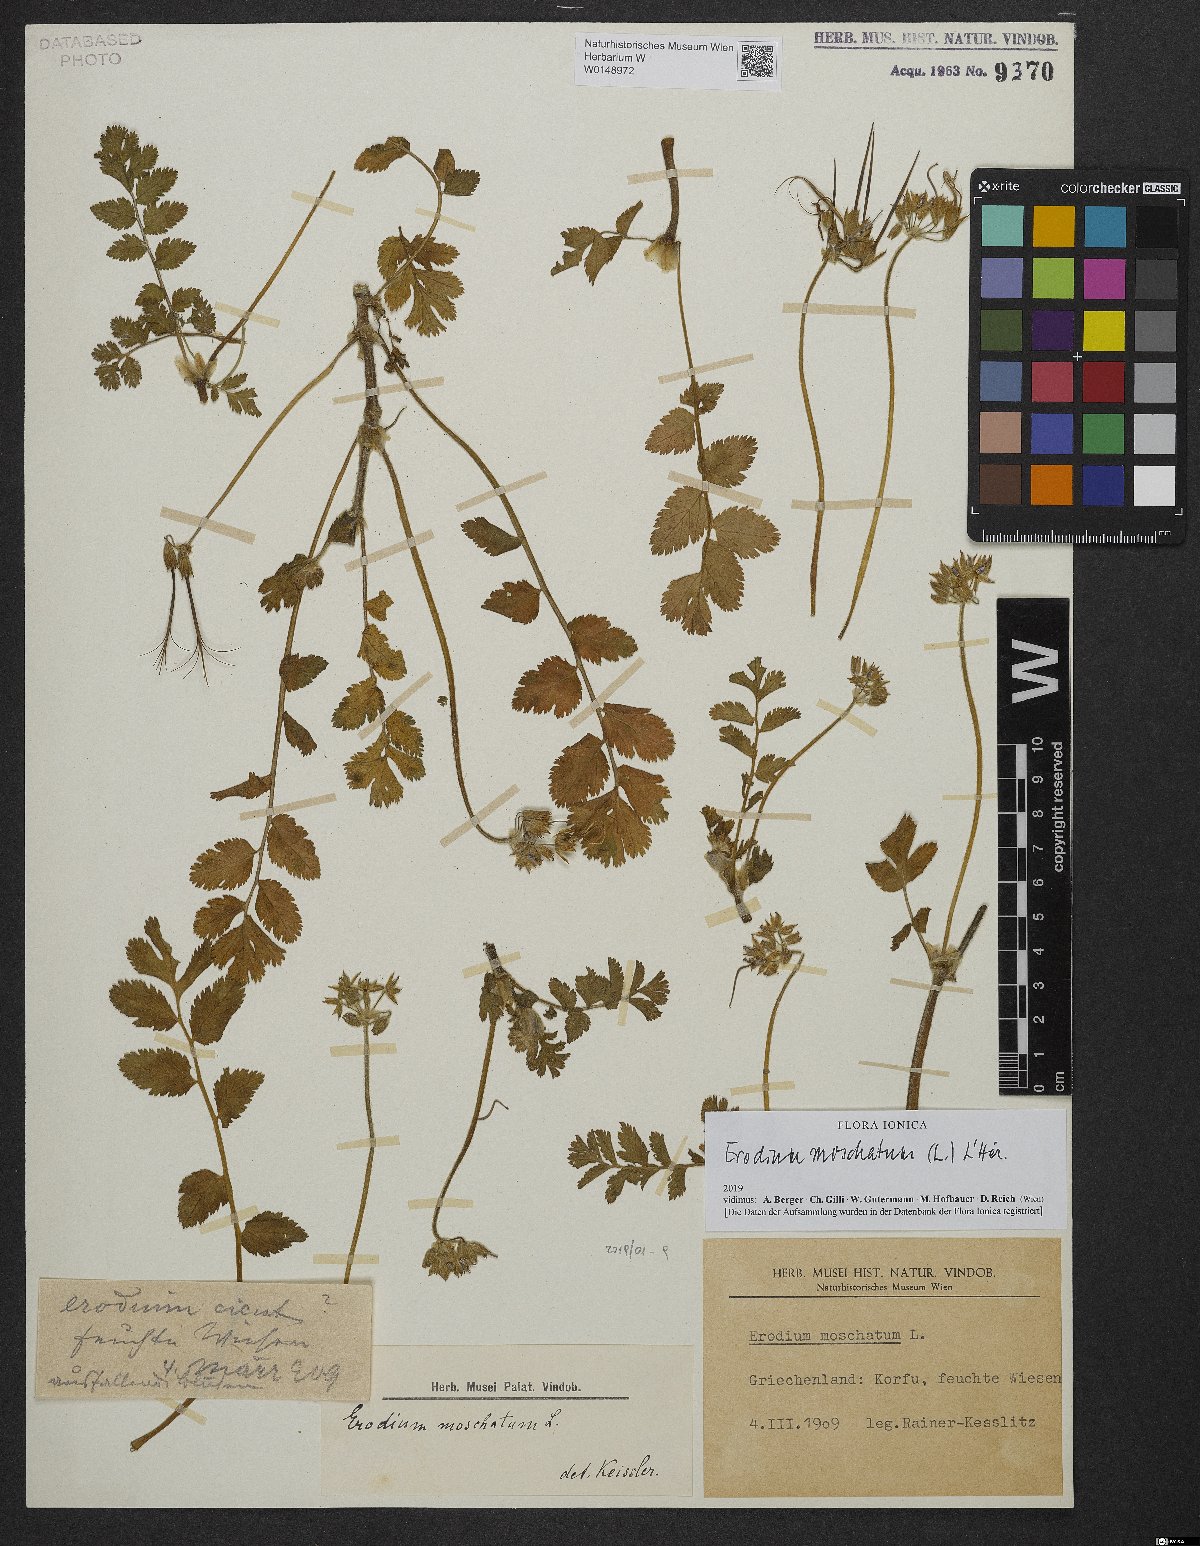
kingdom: Plantae
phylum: Tracheophyta
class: Magnoliopsida
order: Geraniales
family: Geraniaceae
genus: Erodium
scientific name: Erodium moschatum
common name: Musk stork's-bill
